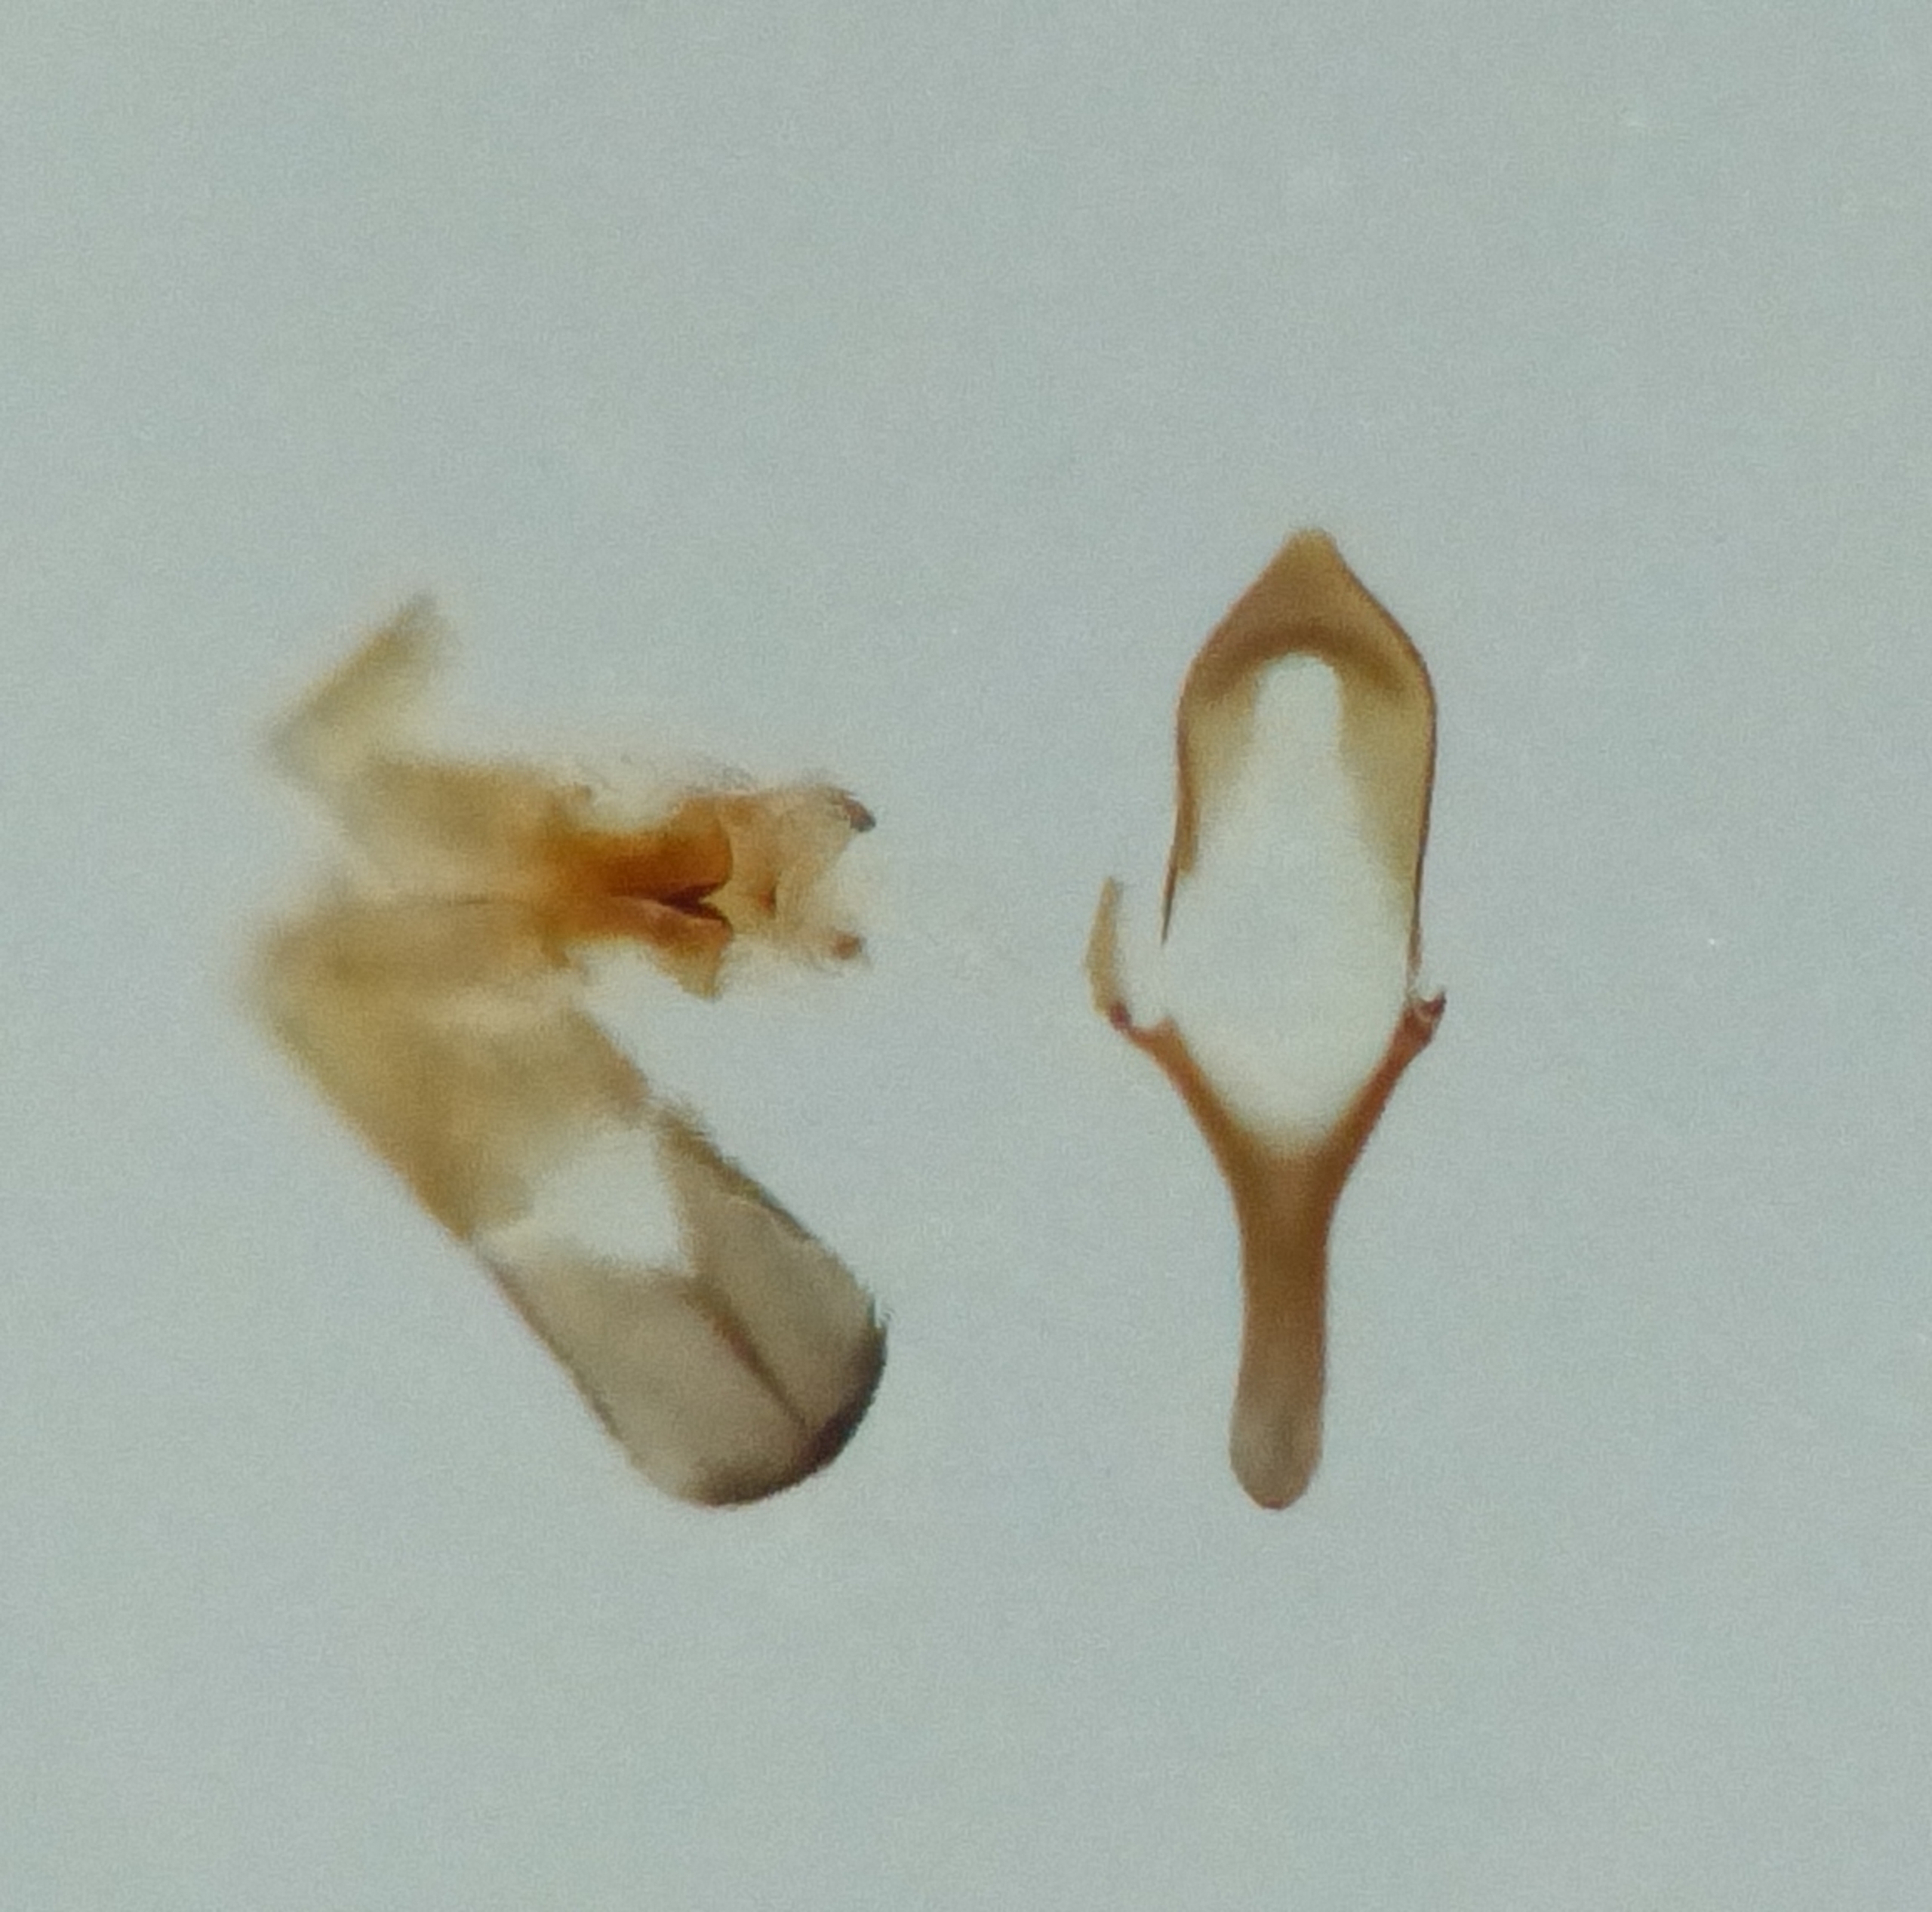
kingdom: Animalia
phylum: Arthropoda
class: Insecta
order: Coleoptera
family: Cryptophagidae
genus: Atomaria
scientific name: Atomaria analis
